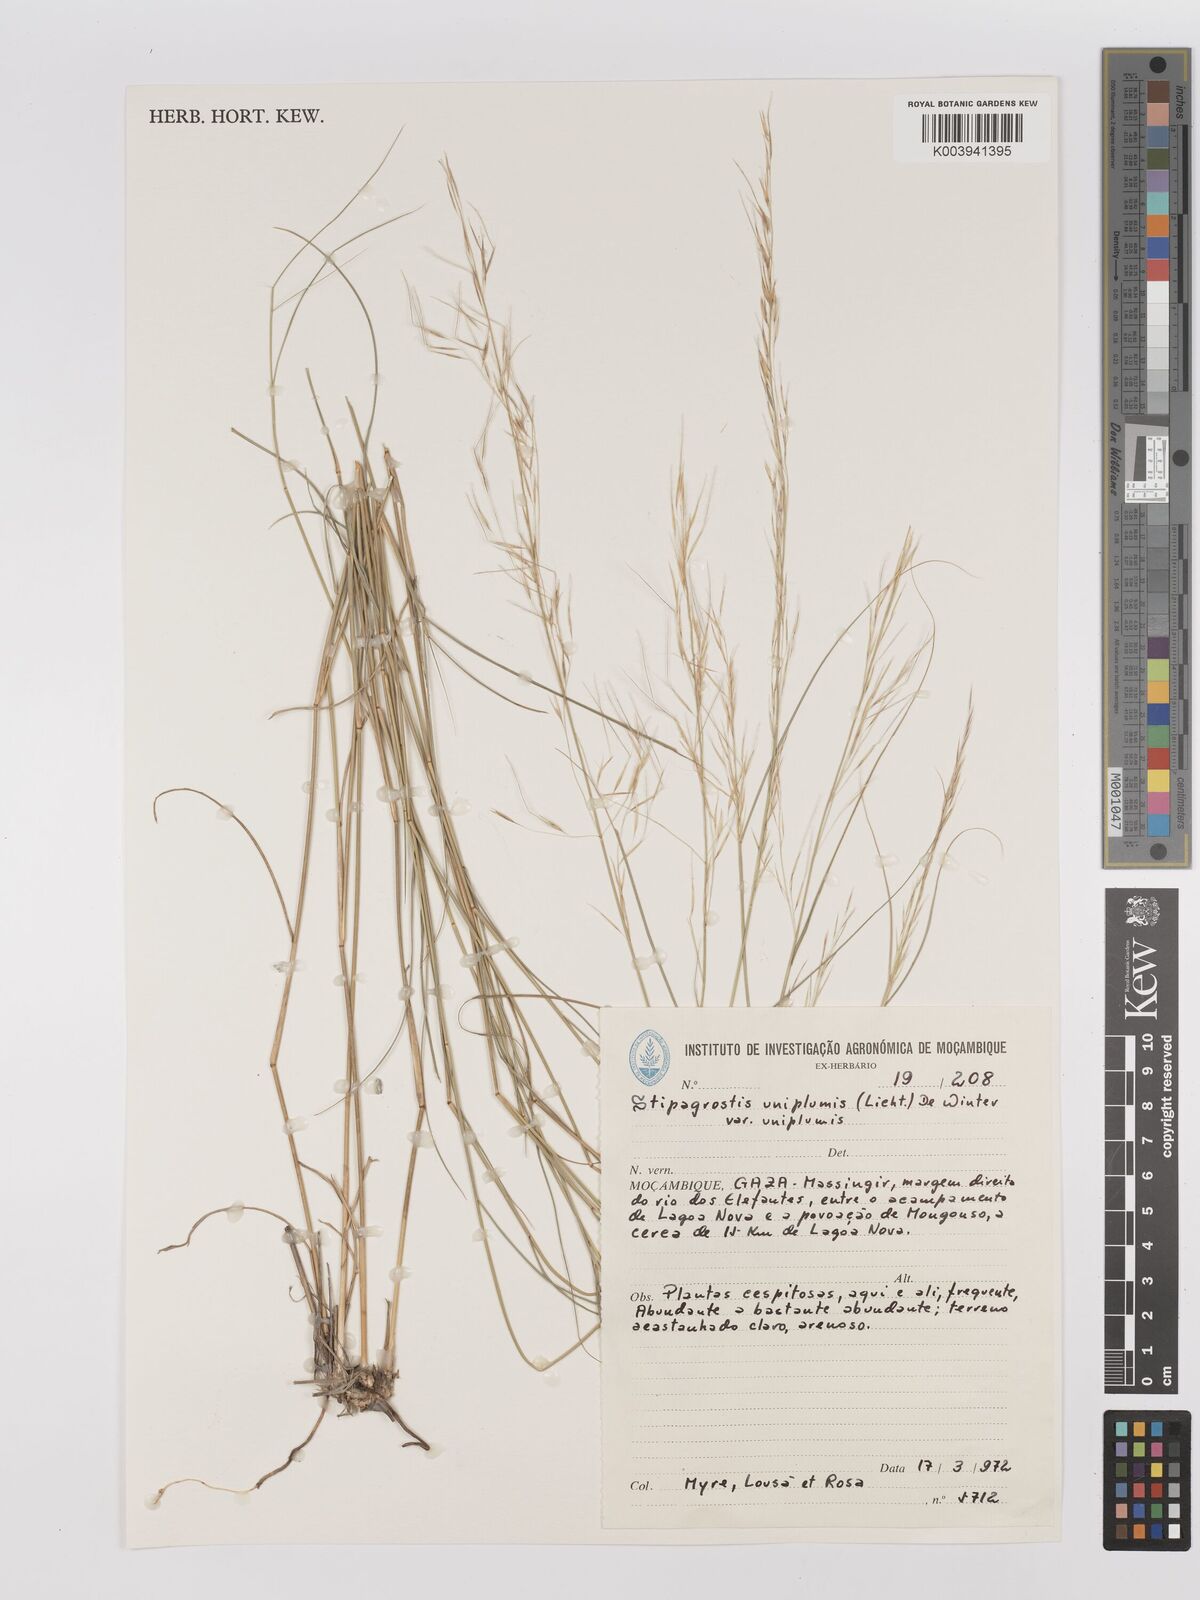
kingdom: Plantae
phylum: Tracheophyta
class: Liliopsida
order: Poales
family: Poaceae
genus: Stipagrostis
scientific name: Stipagrostis uniplumis
